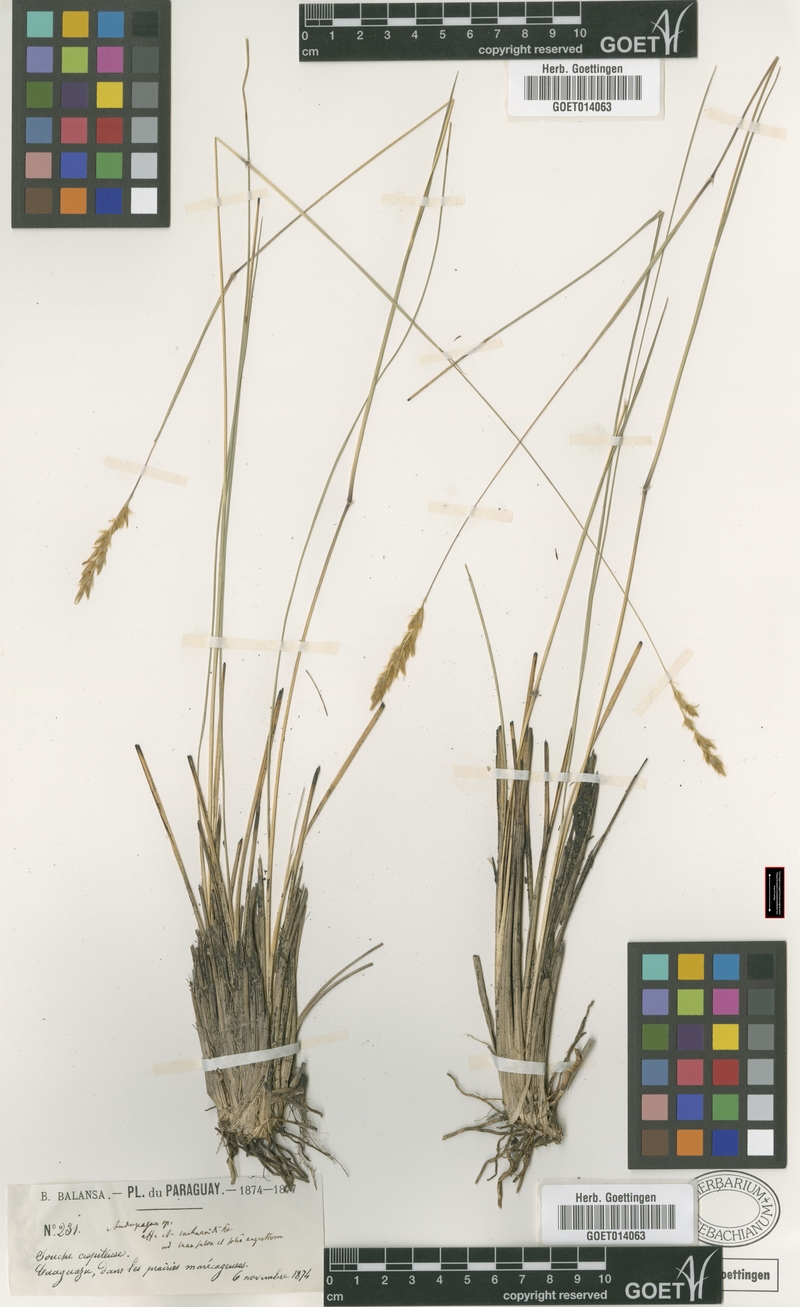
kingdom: Plantae
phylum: Tracheophyta
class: Liliopsida
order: Poales
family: Poaceae
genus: Eriochrysis
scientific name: Eriochrysis filiformis
